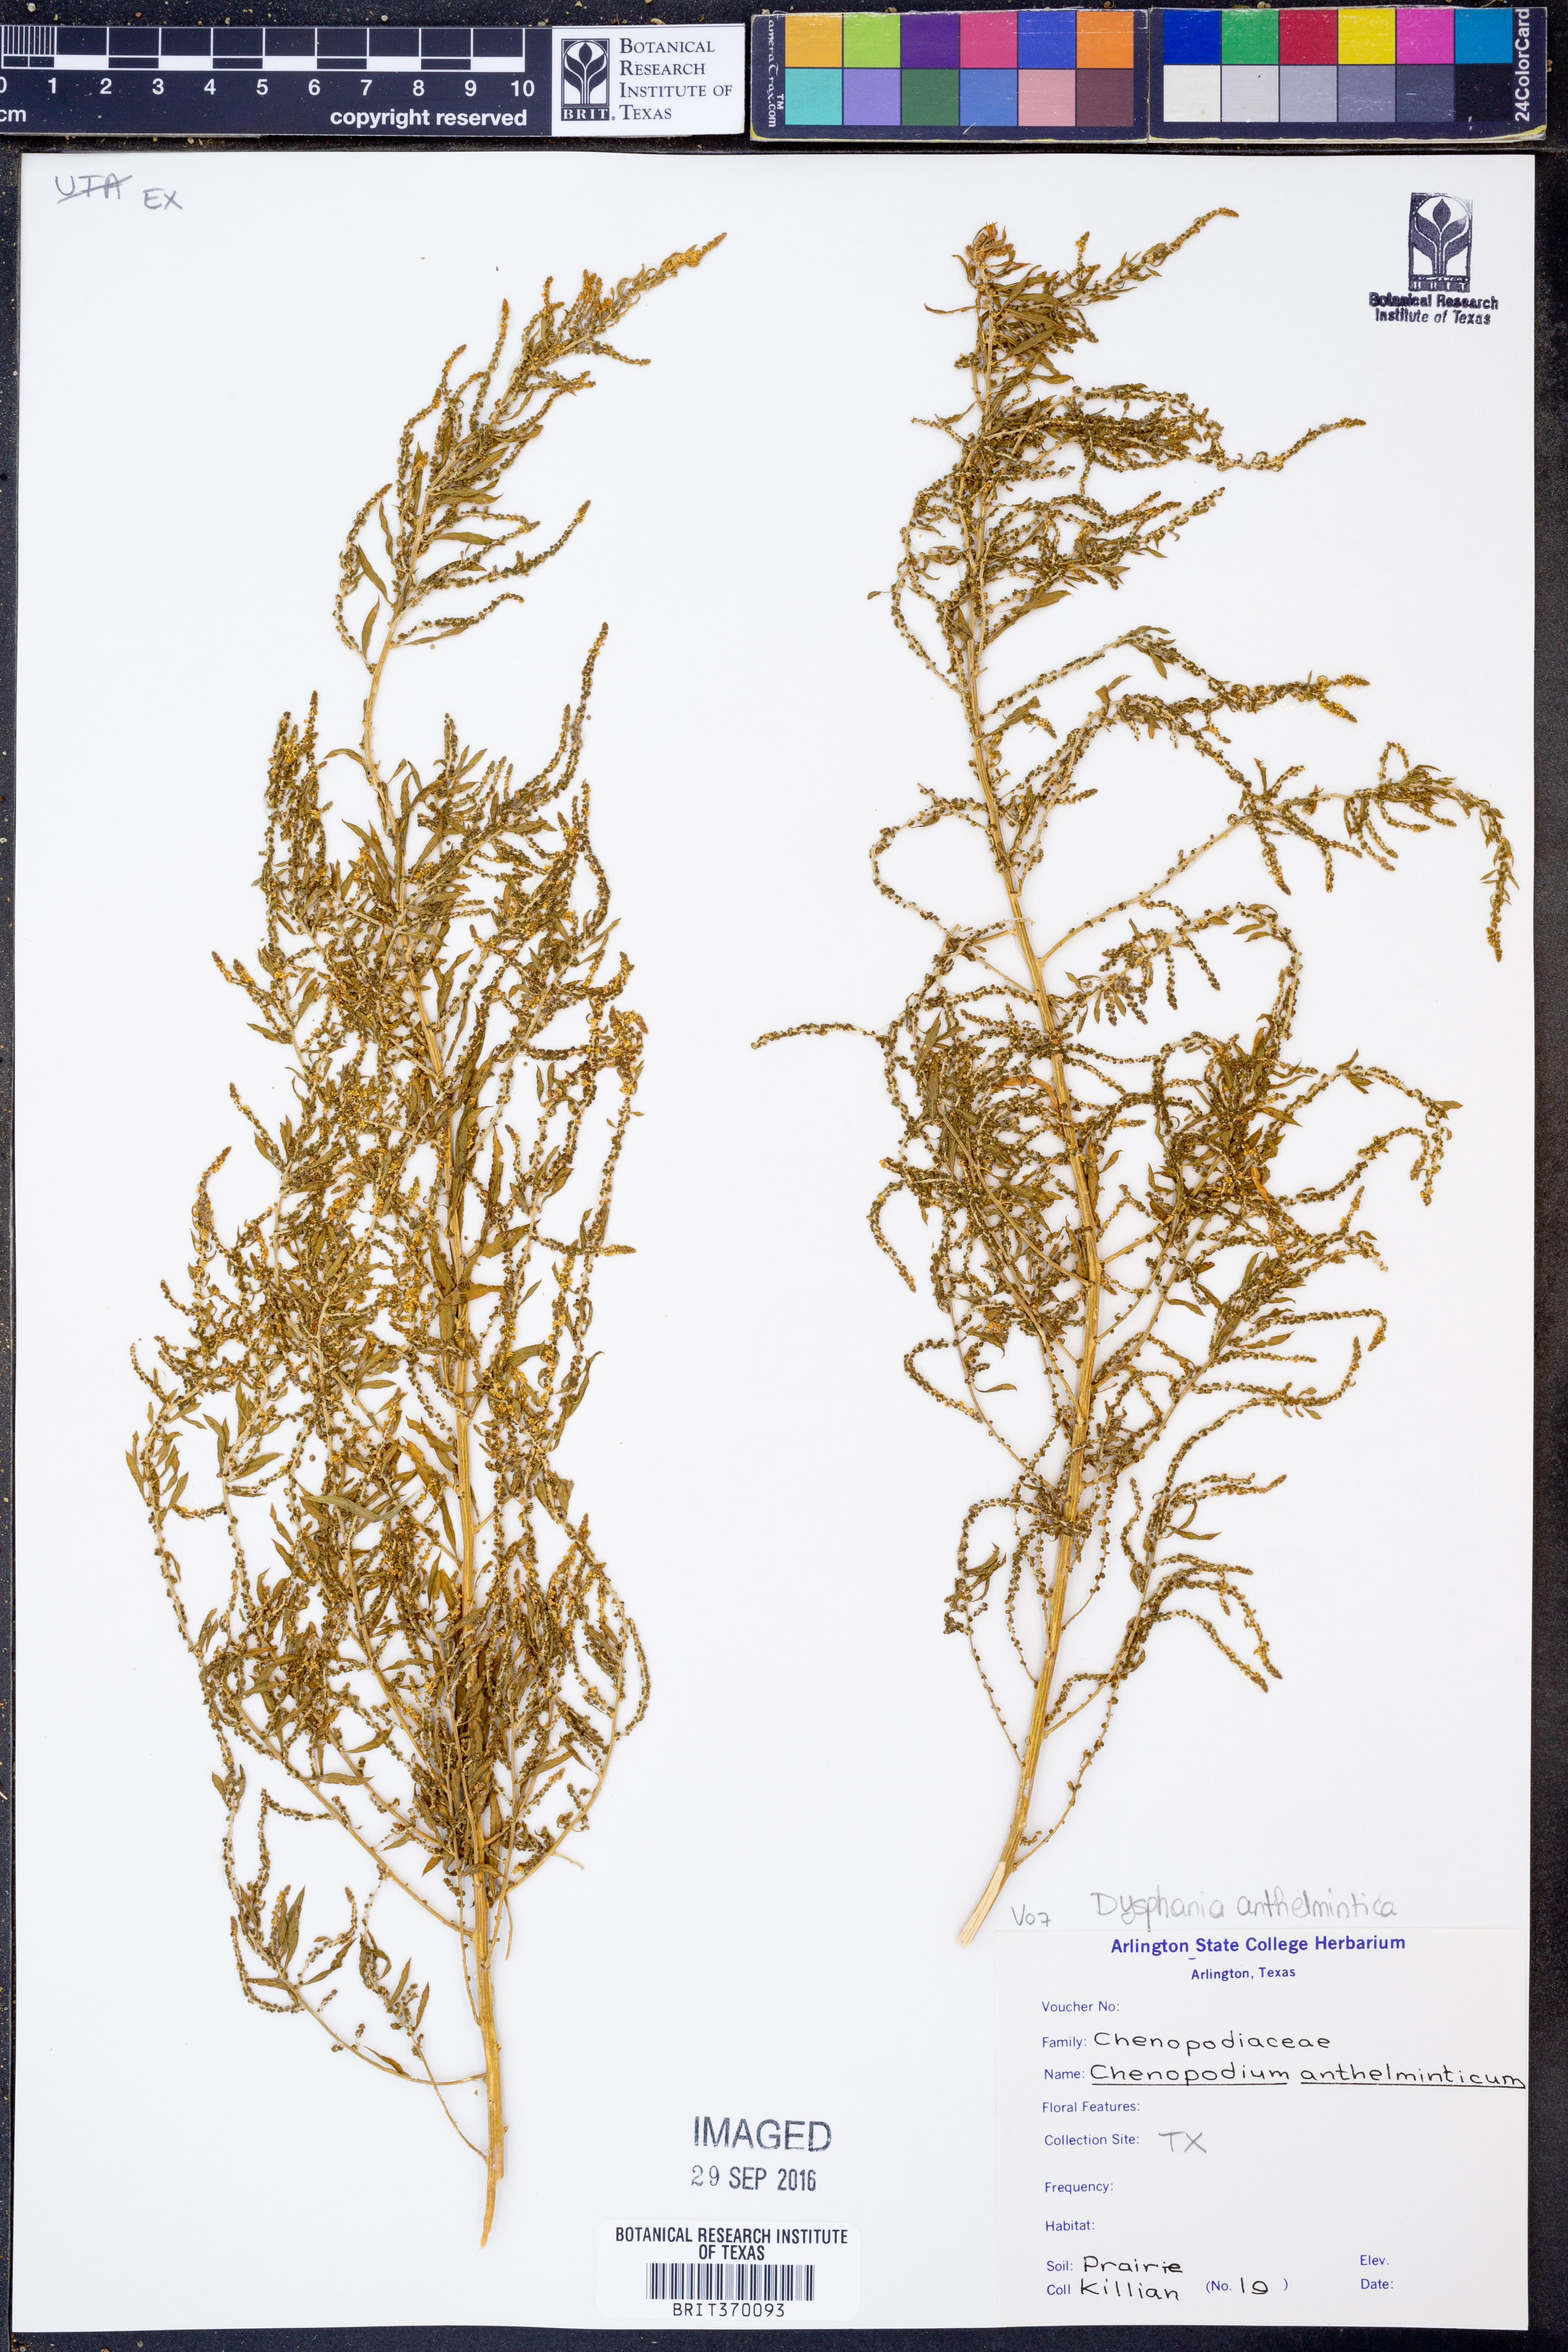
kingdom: Plantae
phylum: Tracheophyta
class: Magnoliopsida
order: Caryophyllales
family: Amaranthaceae
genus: Dysphania
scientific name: Dysphania anthelmintica
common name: Wormseed
